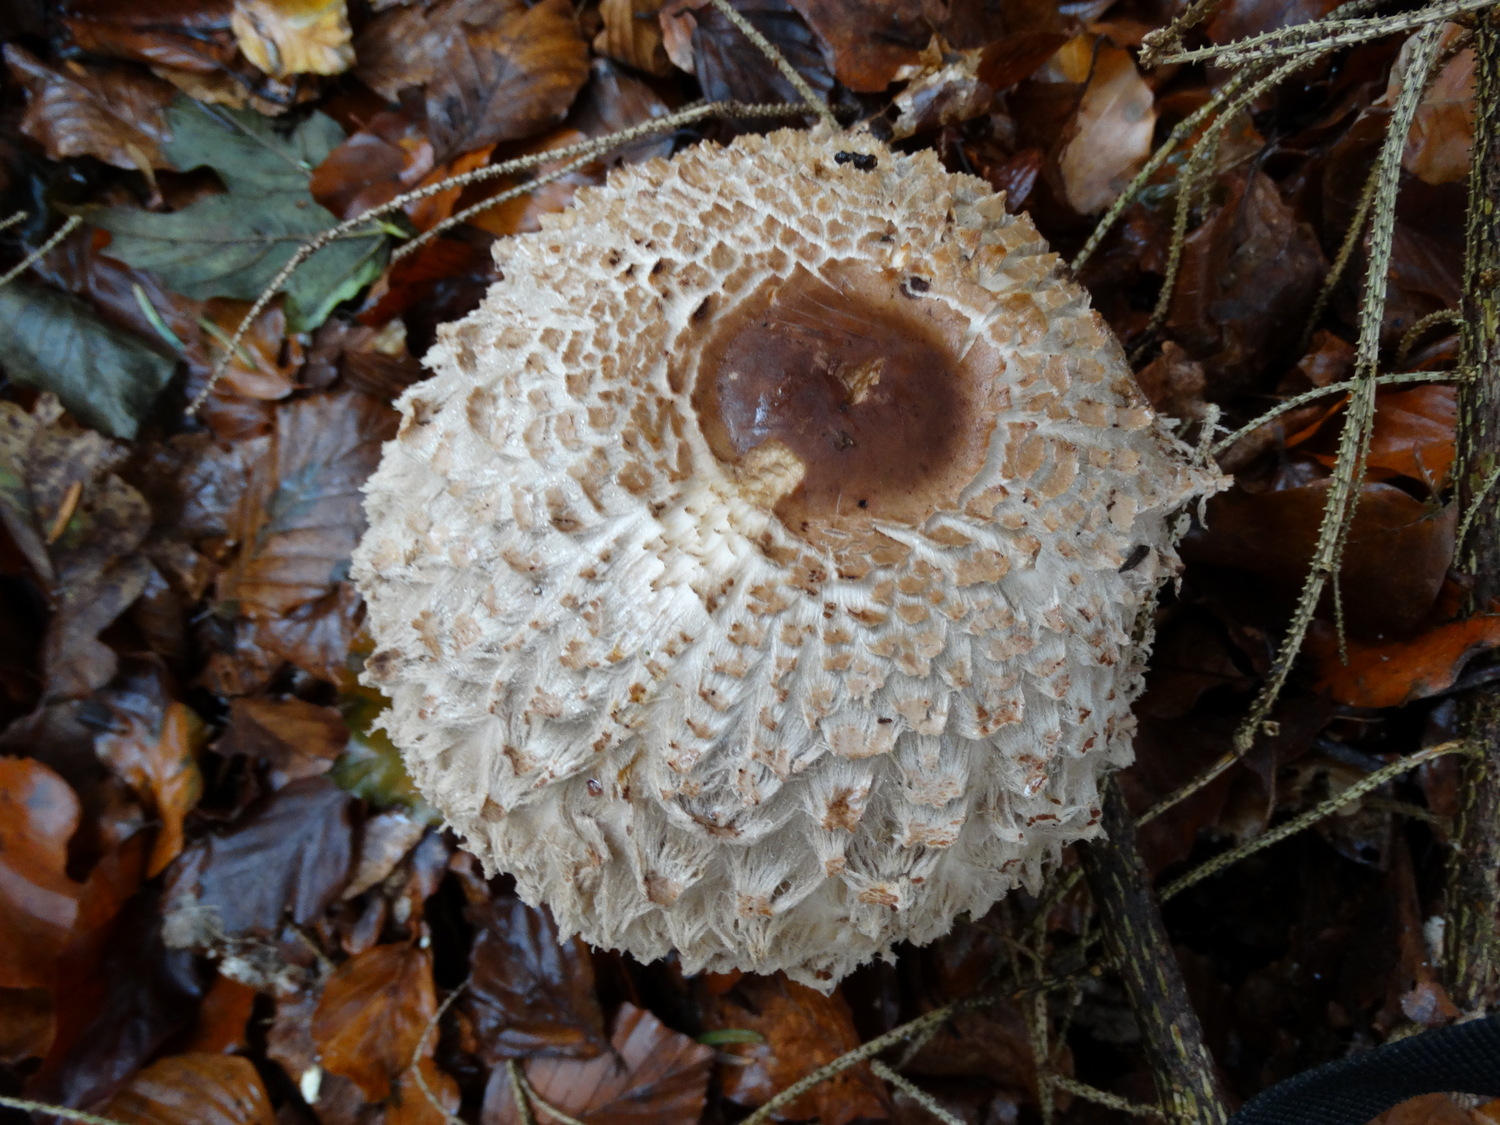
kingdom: Fungi
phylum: Basidiomycota
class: Agaricomycetes
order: Agaricales
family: Agaricaceae
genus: Chlorophyllum
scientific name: Chlorophyllum olivieri
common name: almindelig rabarberhat
